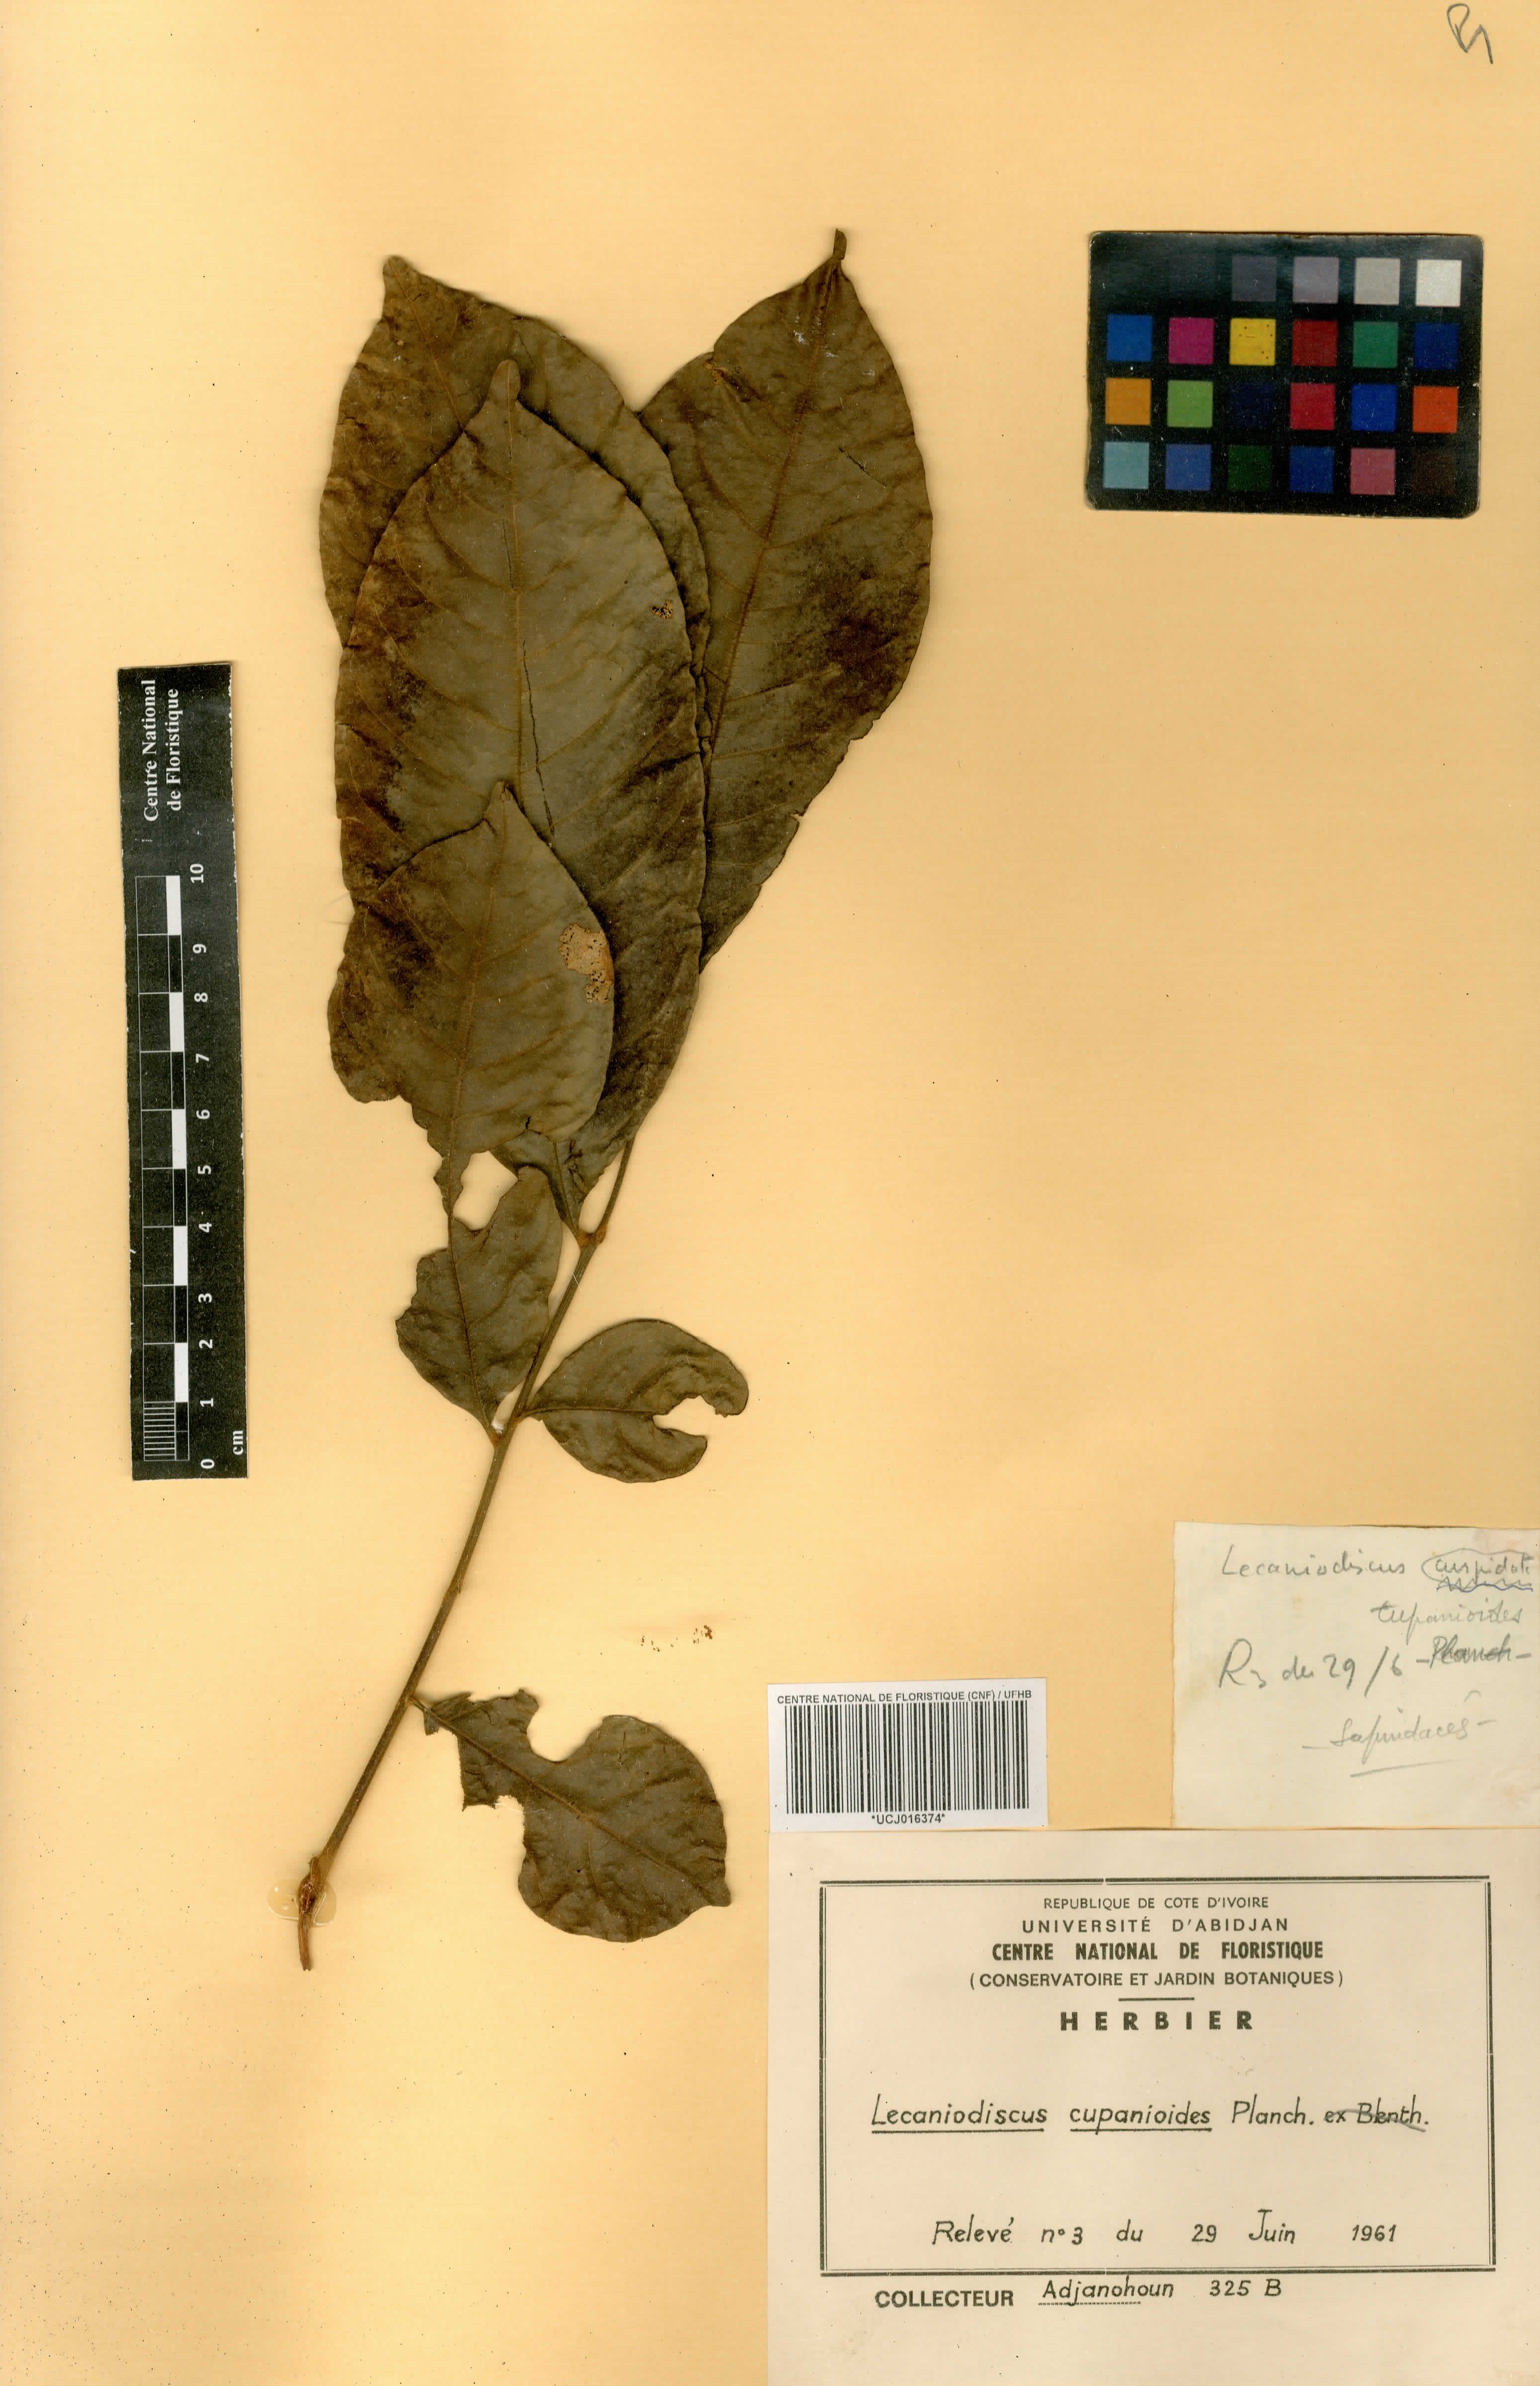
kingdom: Plantae
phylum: Tracheophyta
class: Magnoliopsida
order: Sapindales
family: Sapindaceae
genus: Lecaniodiscus
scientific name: Lecaniodiscus cupanioides
